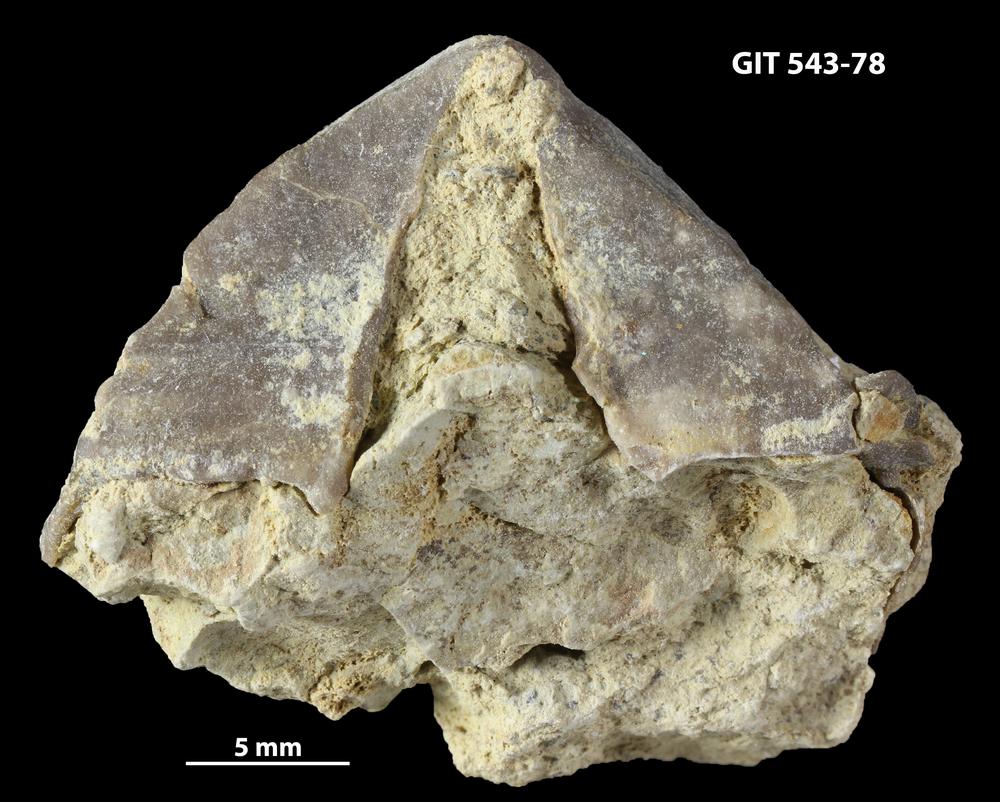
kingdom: Animalia
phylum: Brachiopoda
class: Rhynchonellata
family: Clitambonitidae
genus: Vellamo
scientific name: Vellamo
